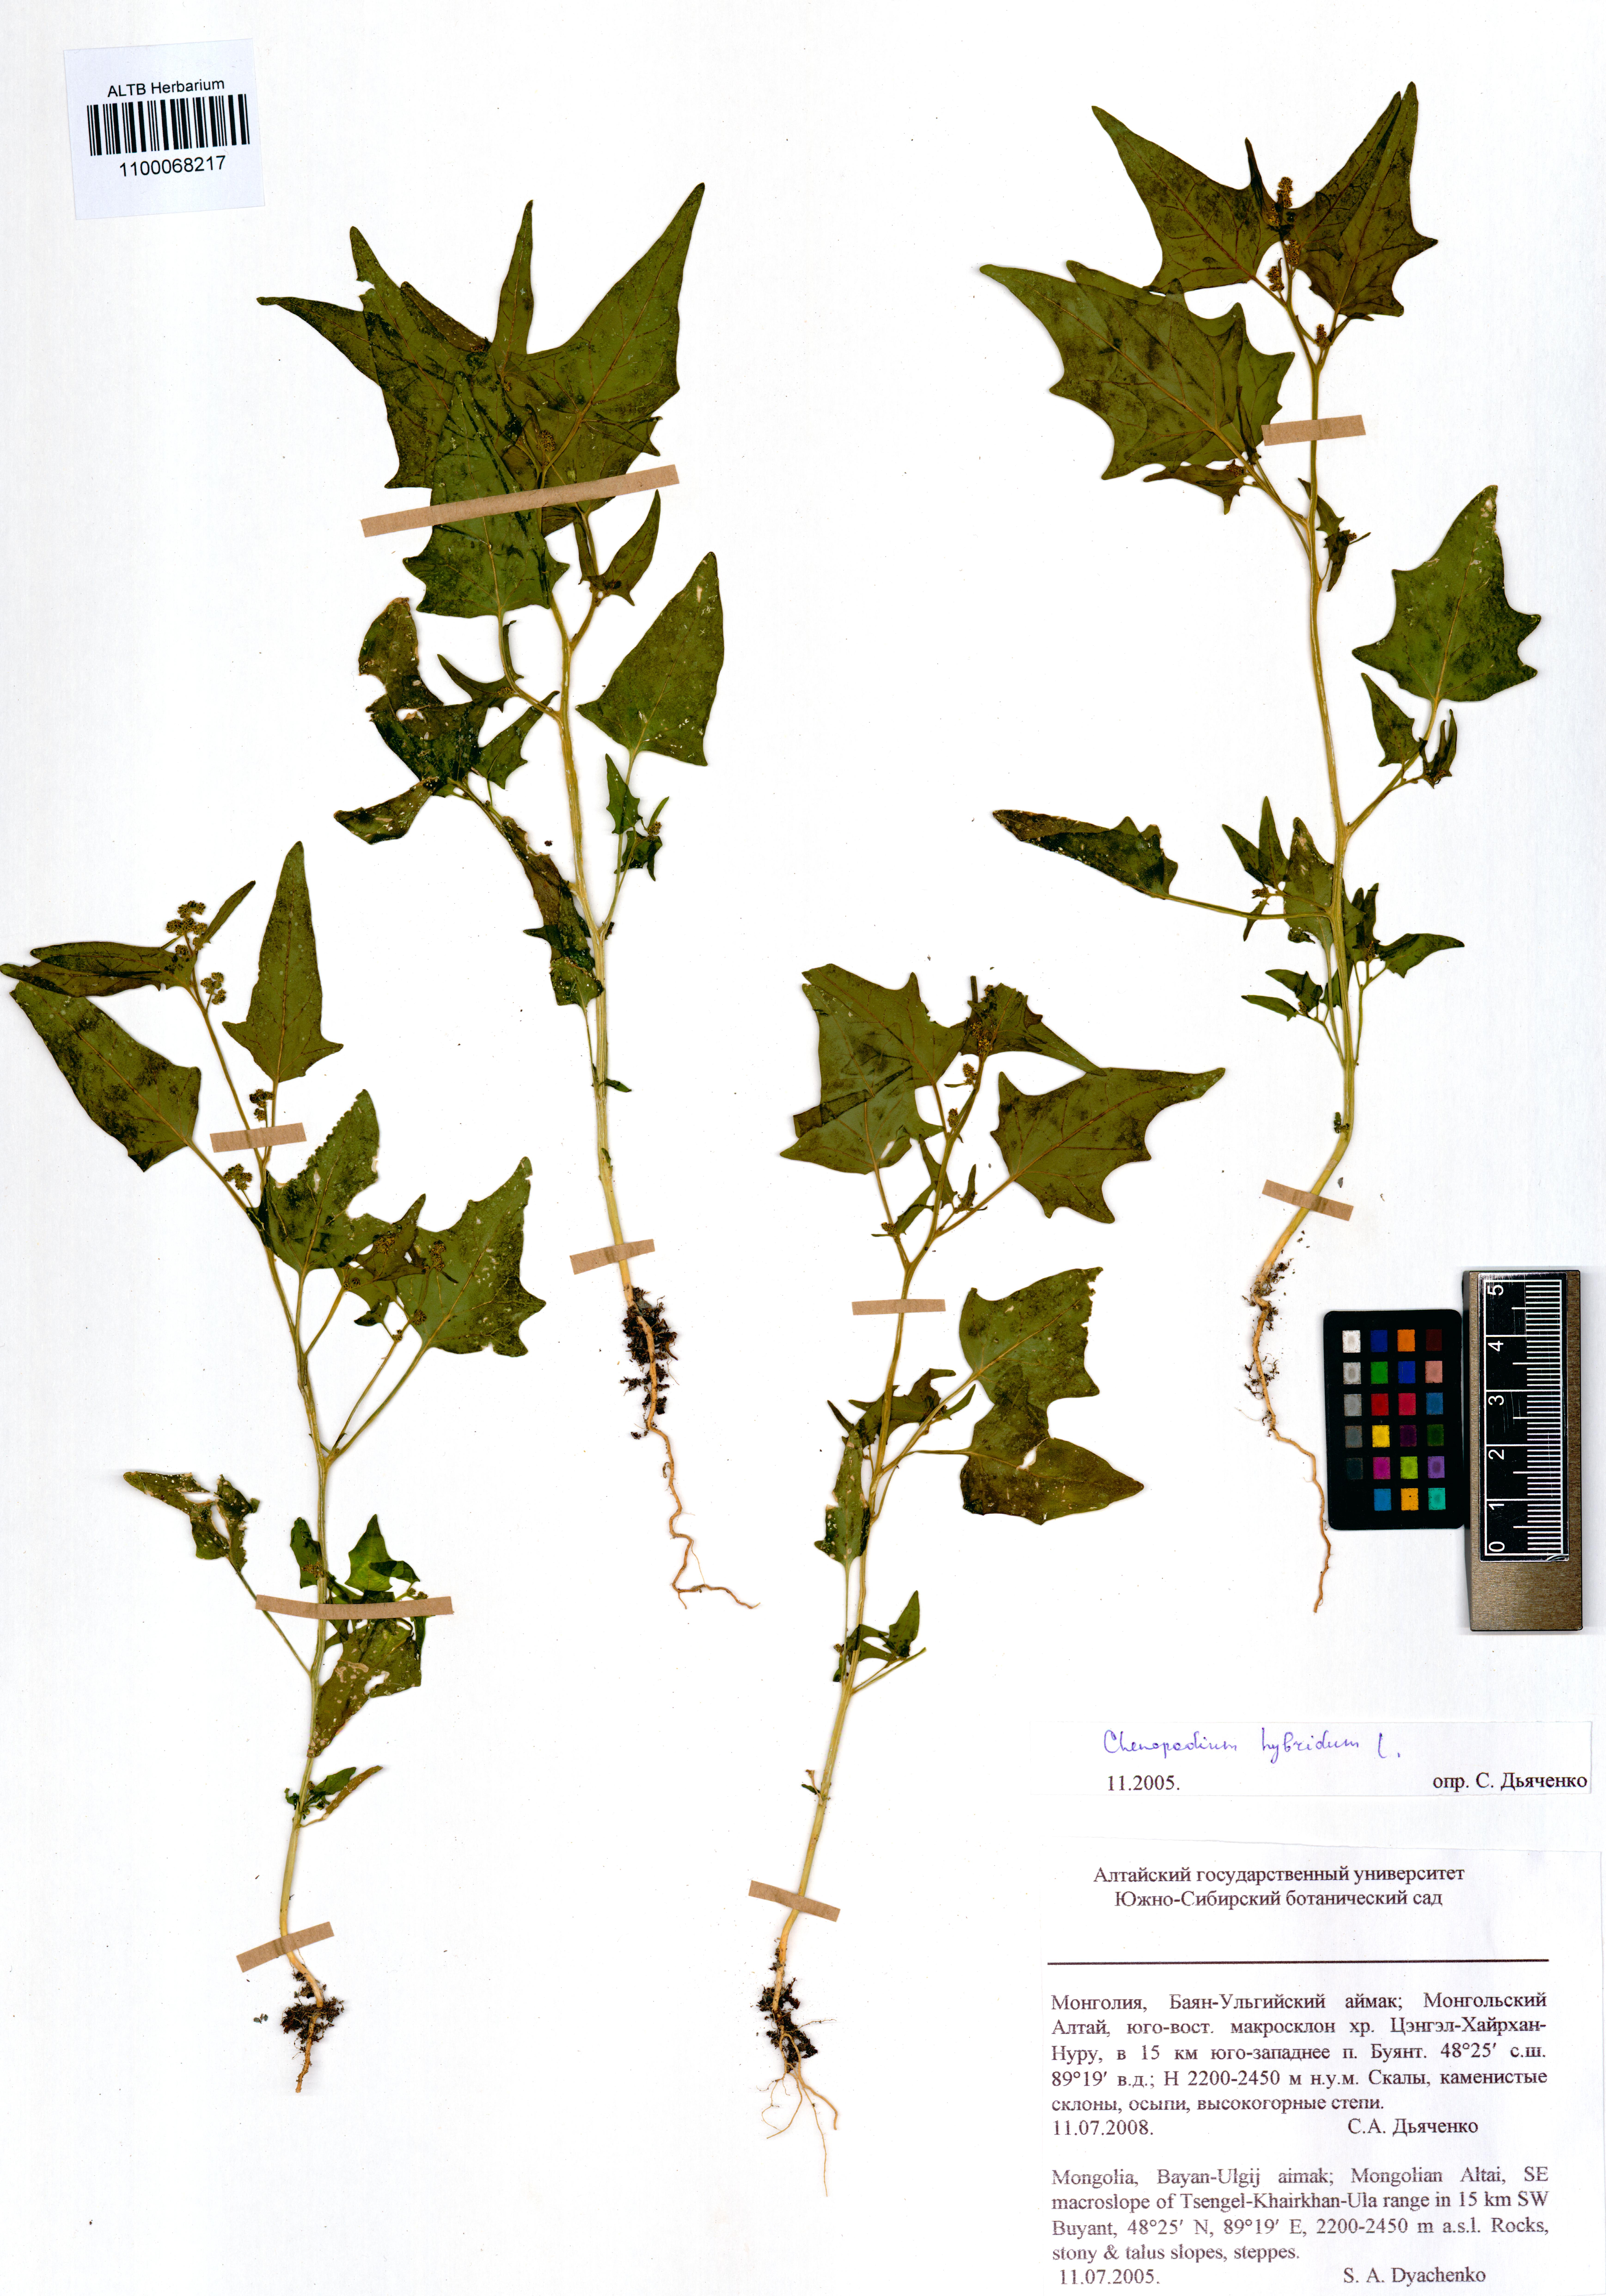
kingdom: Plantae
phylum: Tracheophyta
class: Magnoliopsida
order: Caryophyllales
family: Amaranthaceae
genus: Chenopodiastrum
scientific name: Chenopodiastrum hybridum
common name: Mapleleaf goosefoot
